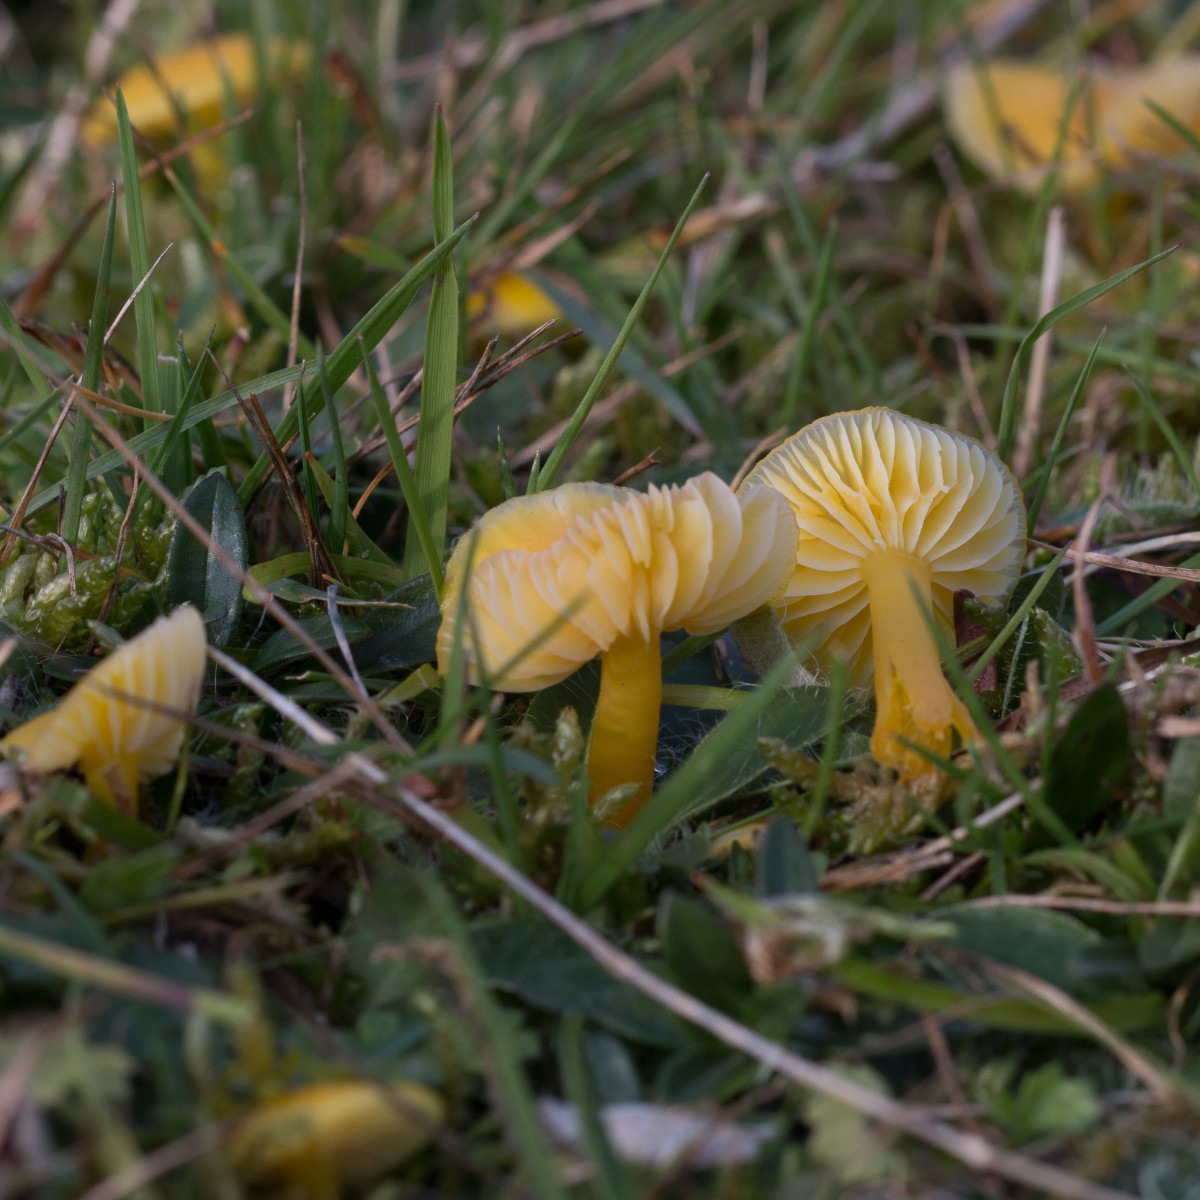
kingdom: Fungi
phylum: Basidiomycota
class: Agaricomycetes
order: Agaricales
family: Hygrophoraceae
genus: Hygrocybe
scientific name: Hygrocybe ceracea
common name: voksgul vokshat
